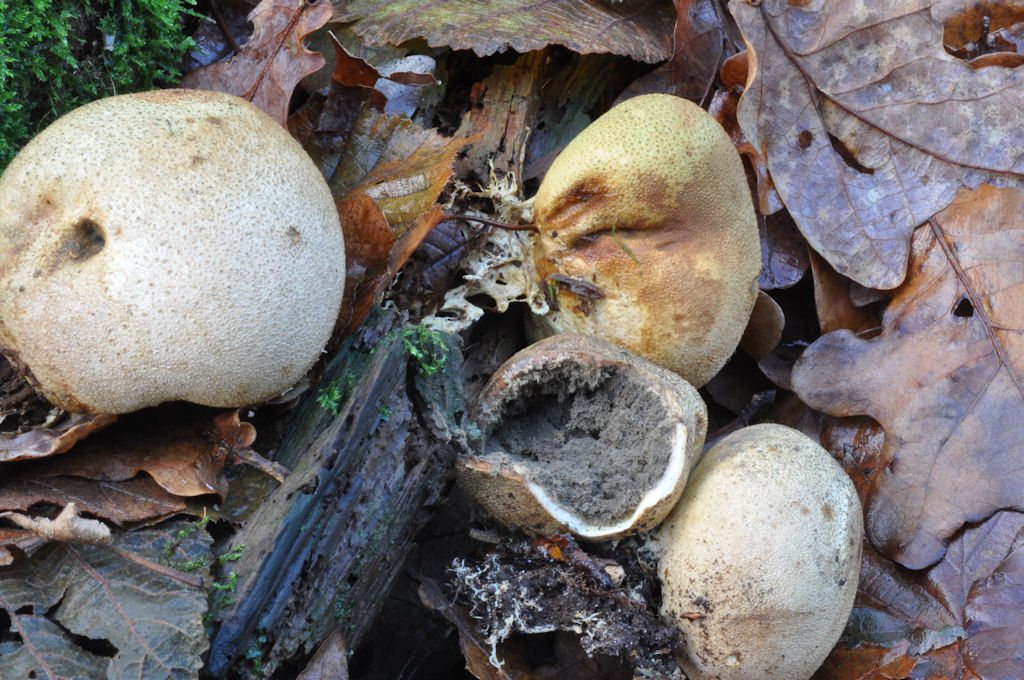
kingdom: Fungi
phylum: Basidiomycota
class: Agaricomycetes
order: Boletales
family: Sclerodermataceae
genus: Scleroderma
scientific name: Scleroderma citrinum
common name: almindelig bruskbold
